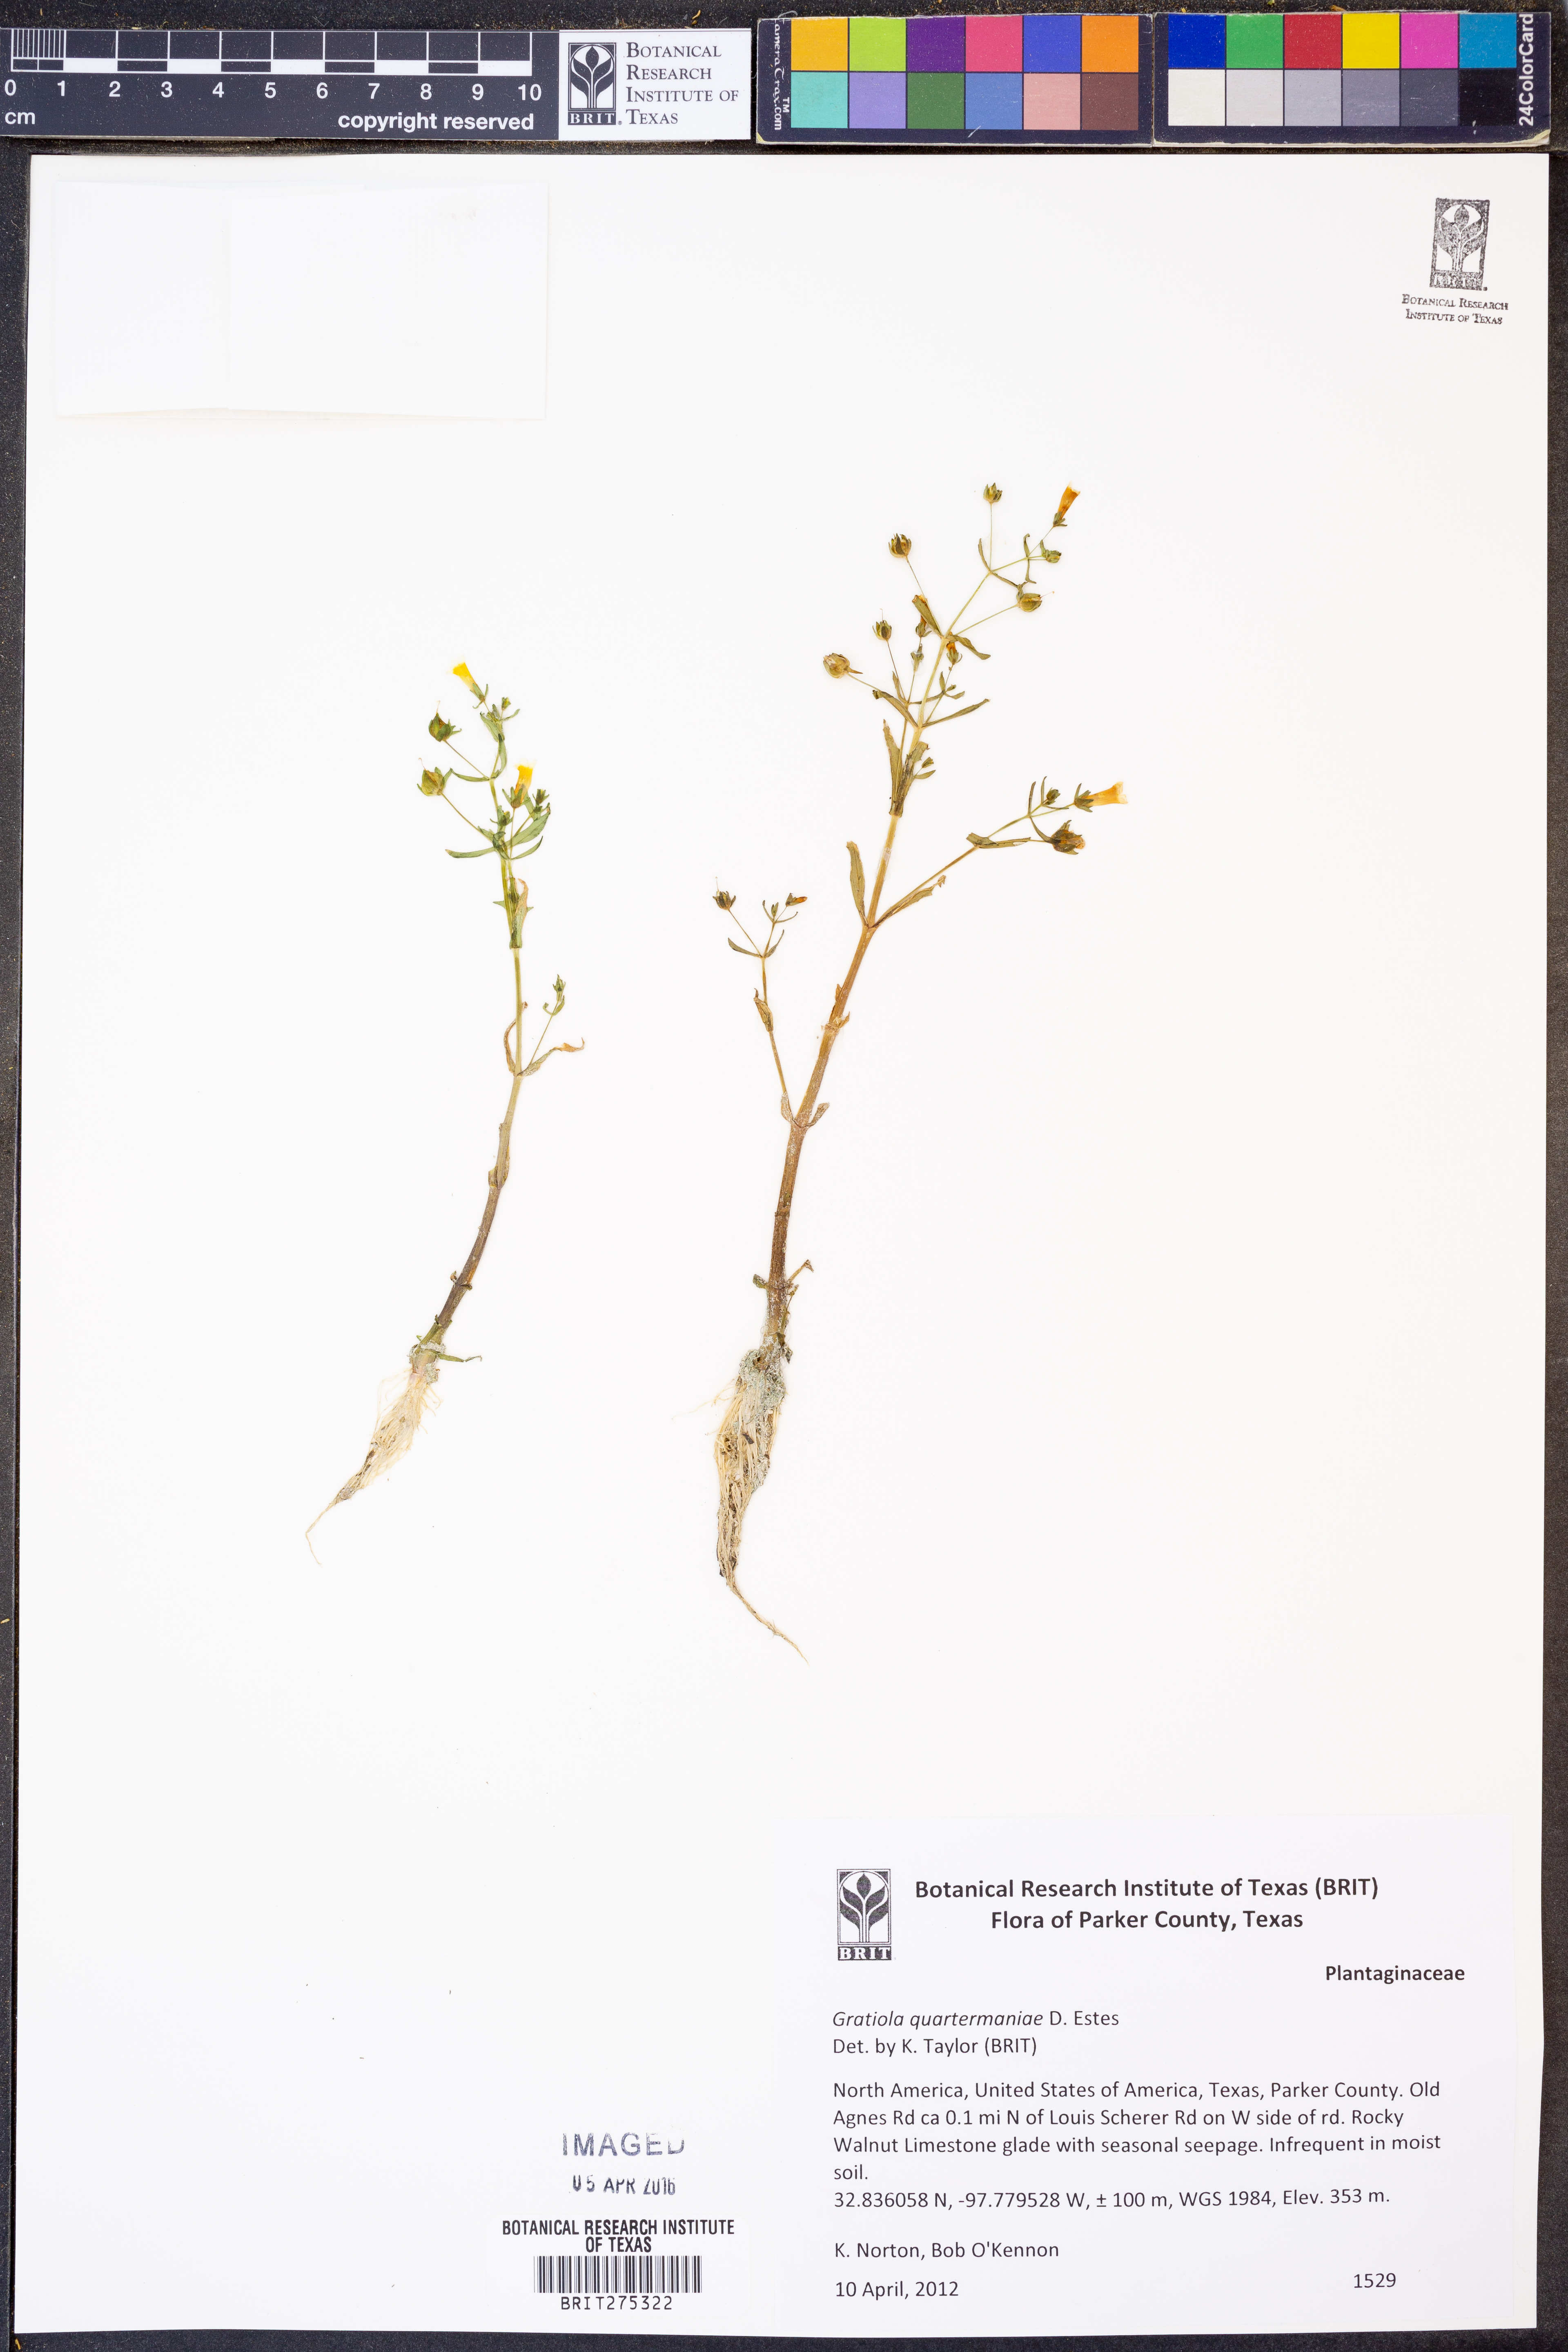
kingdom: Plantae
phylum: Tracheophyta
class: Magnoliopsida
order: Lamiales
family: Plantaginaceae
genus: Gratiola
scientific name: Gratiola quartermaniae
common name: Quarterman's hedge-hyssop
